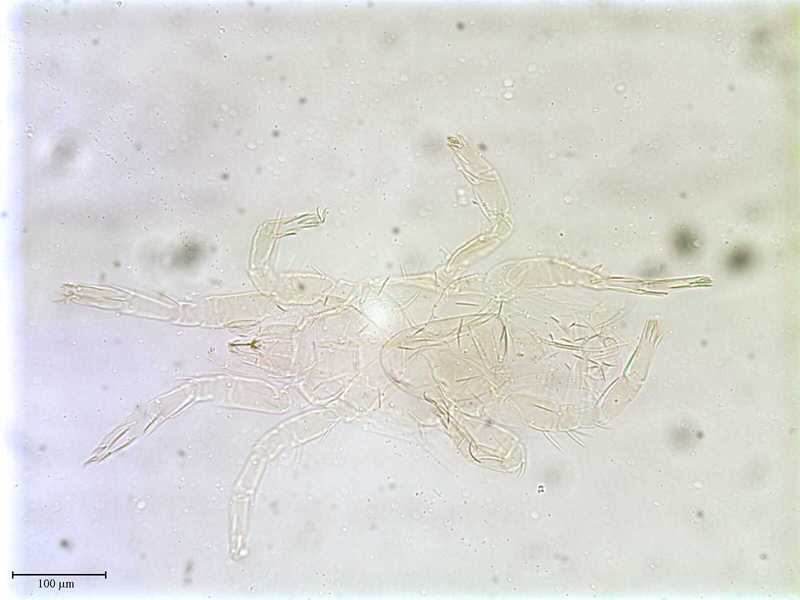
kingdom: Animalia
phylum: Arthropoda
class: Arachnida
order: Trombidiformes
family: Ereynetidae
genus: Ereynetes
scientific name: Ereynetes corticalis
